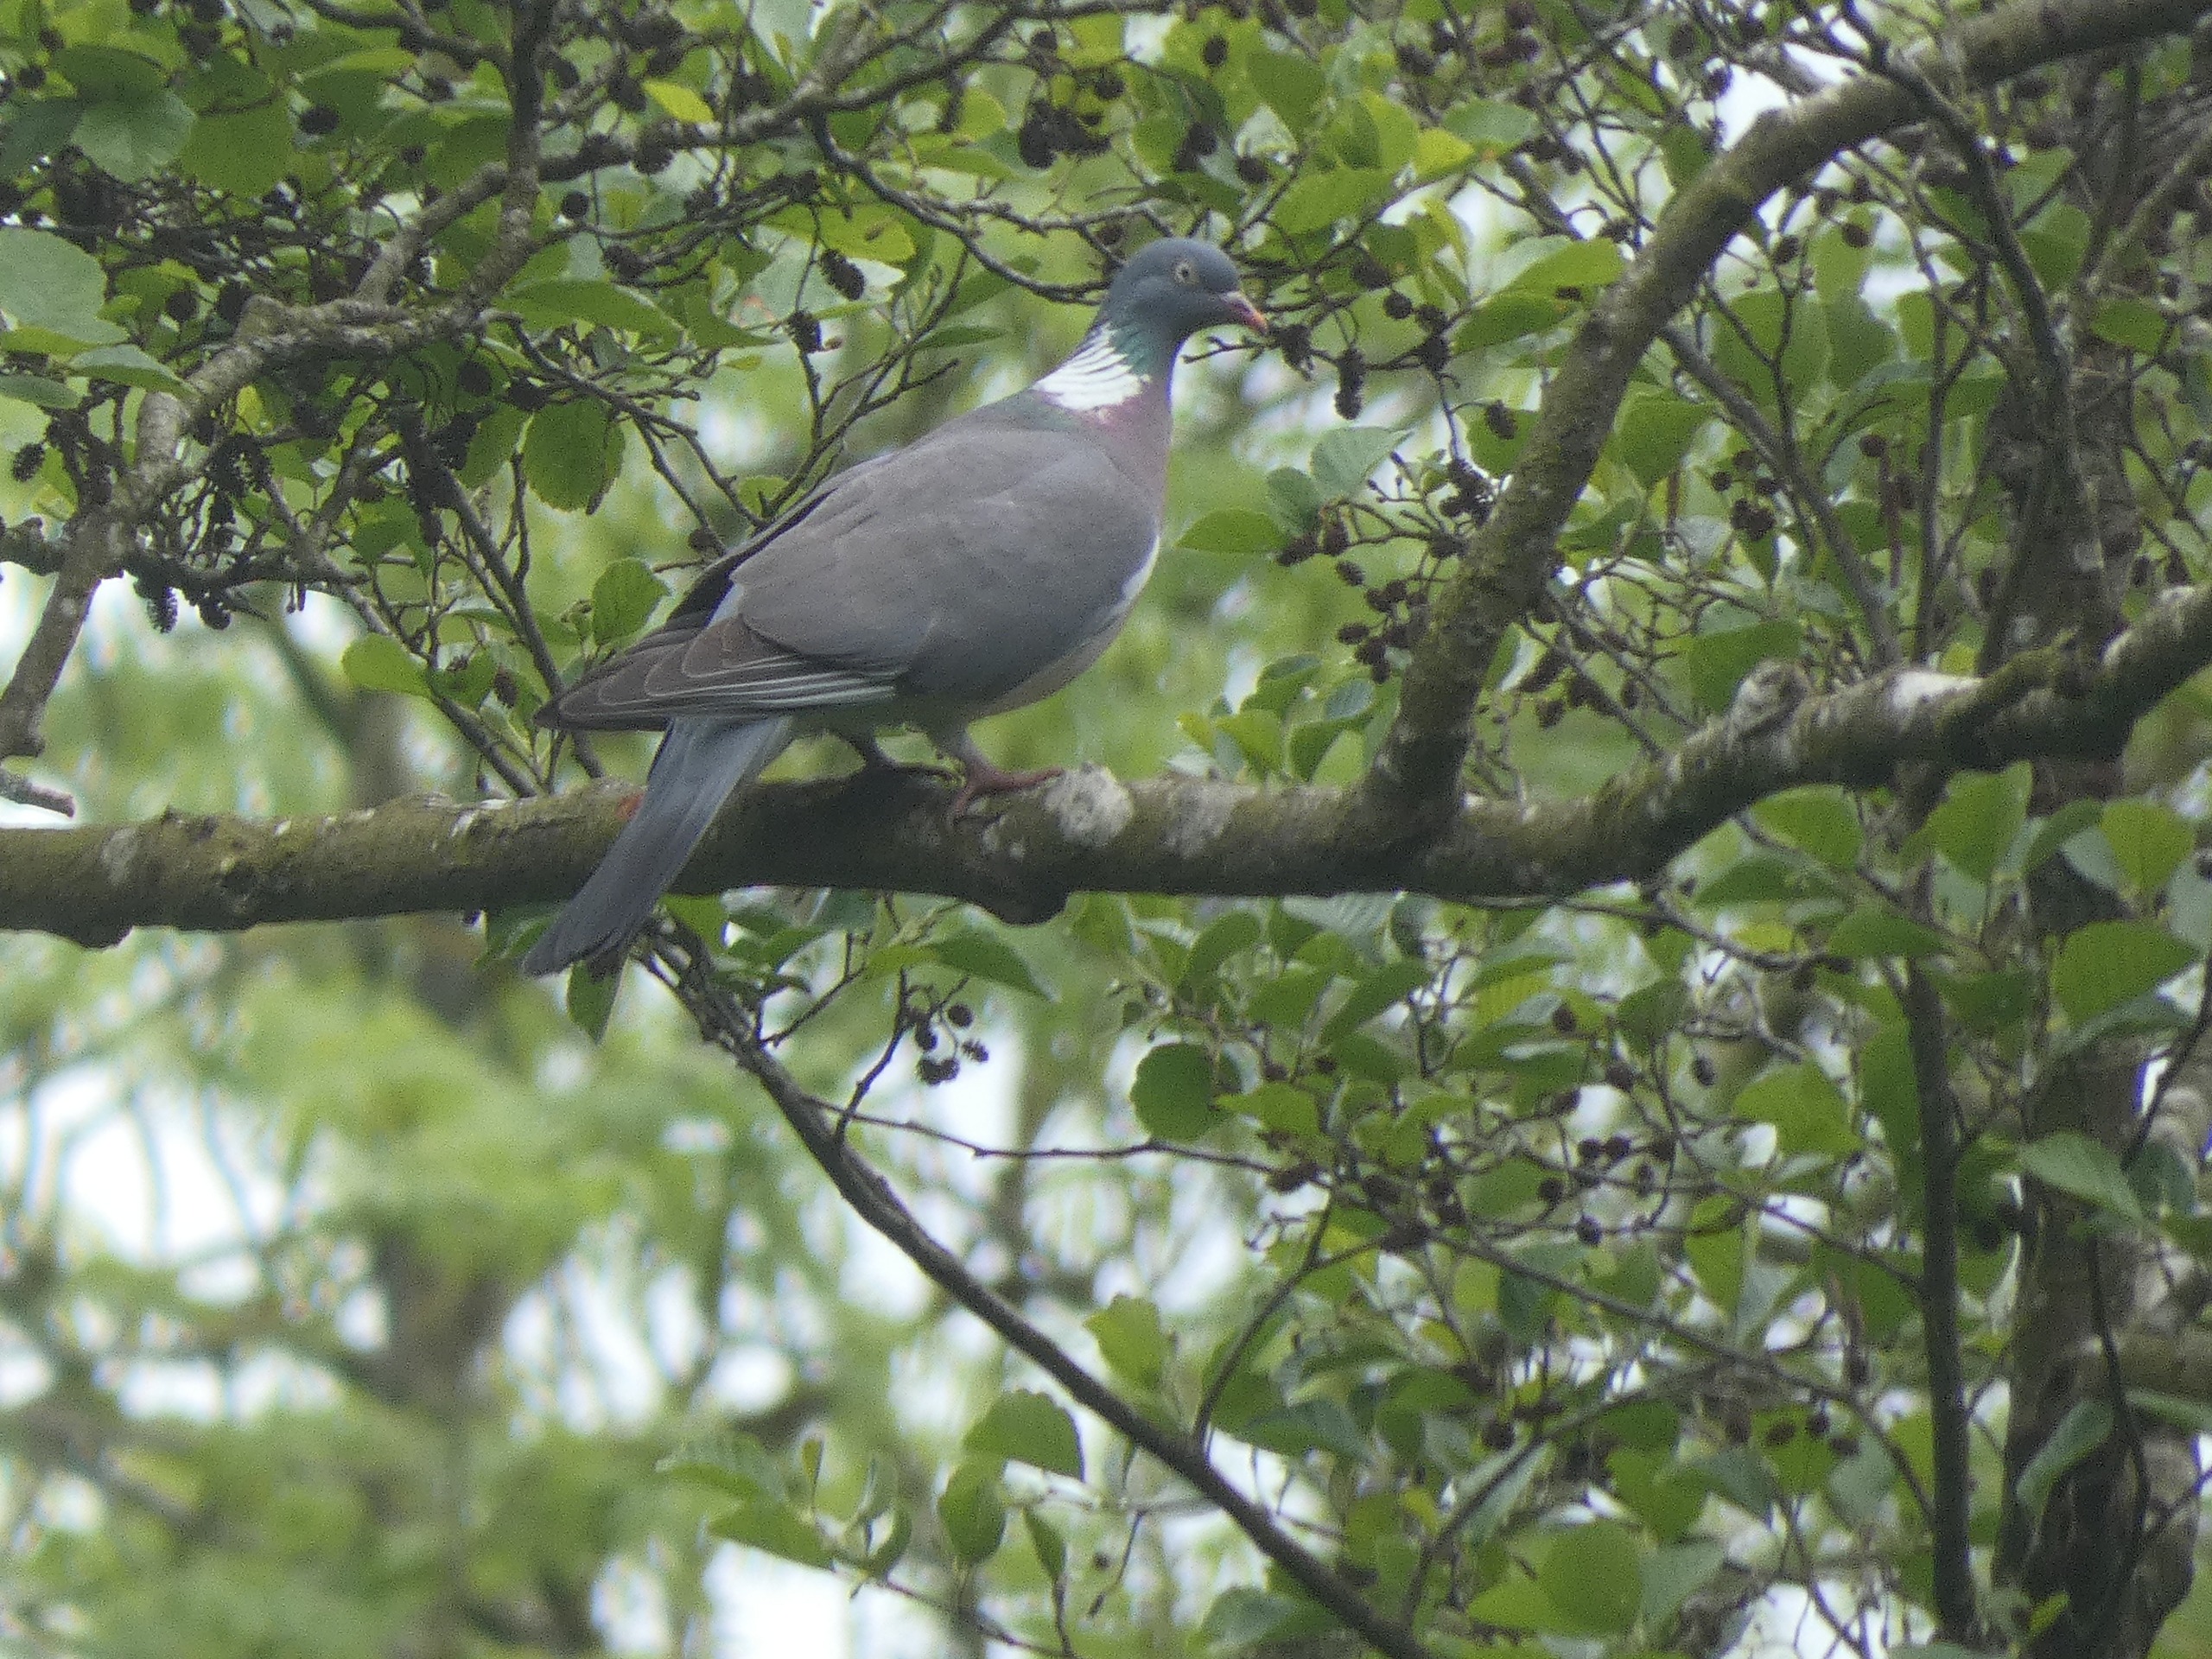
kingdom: Animalia
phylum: Chordata
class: Aves
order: Columbiformes
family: Columbidae
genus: Columba
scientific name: Columba palumbus
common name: Ringdue
